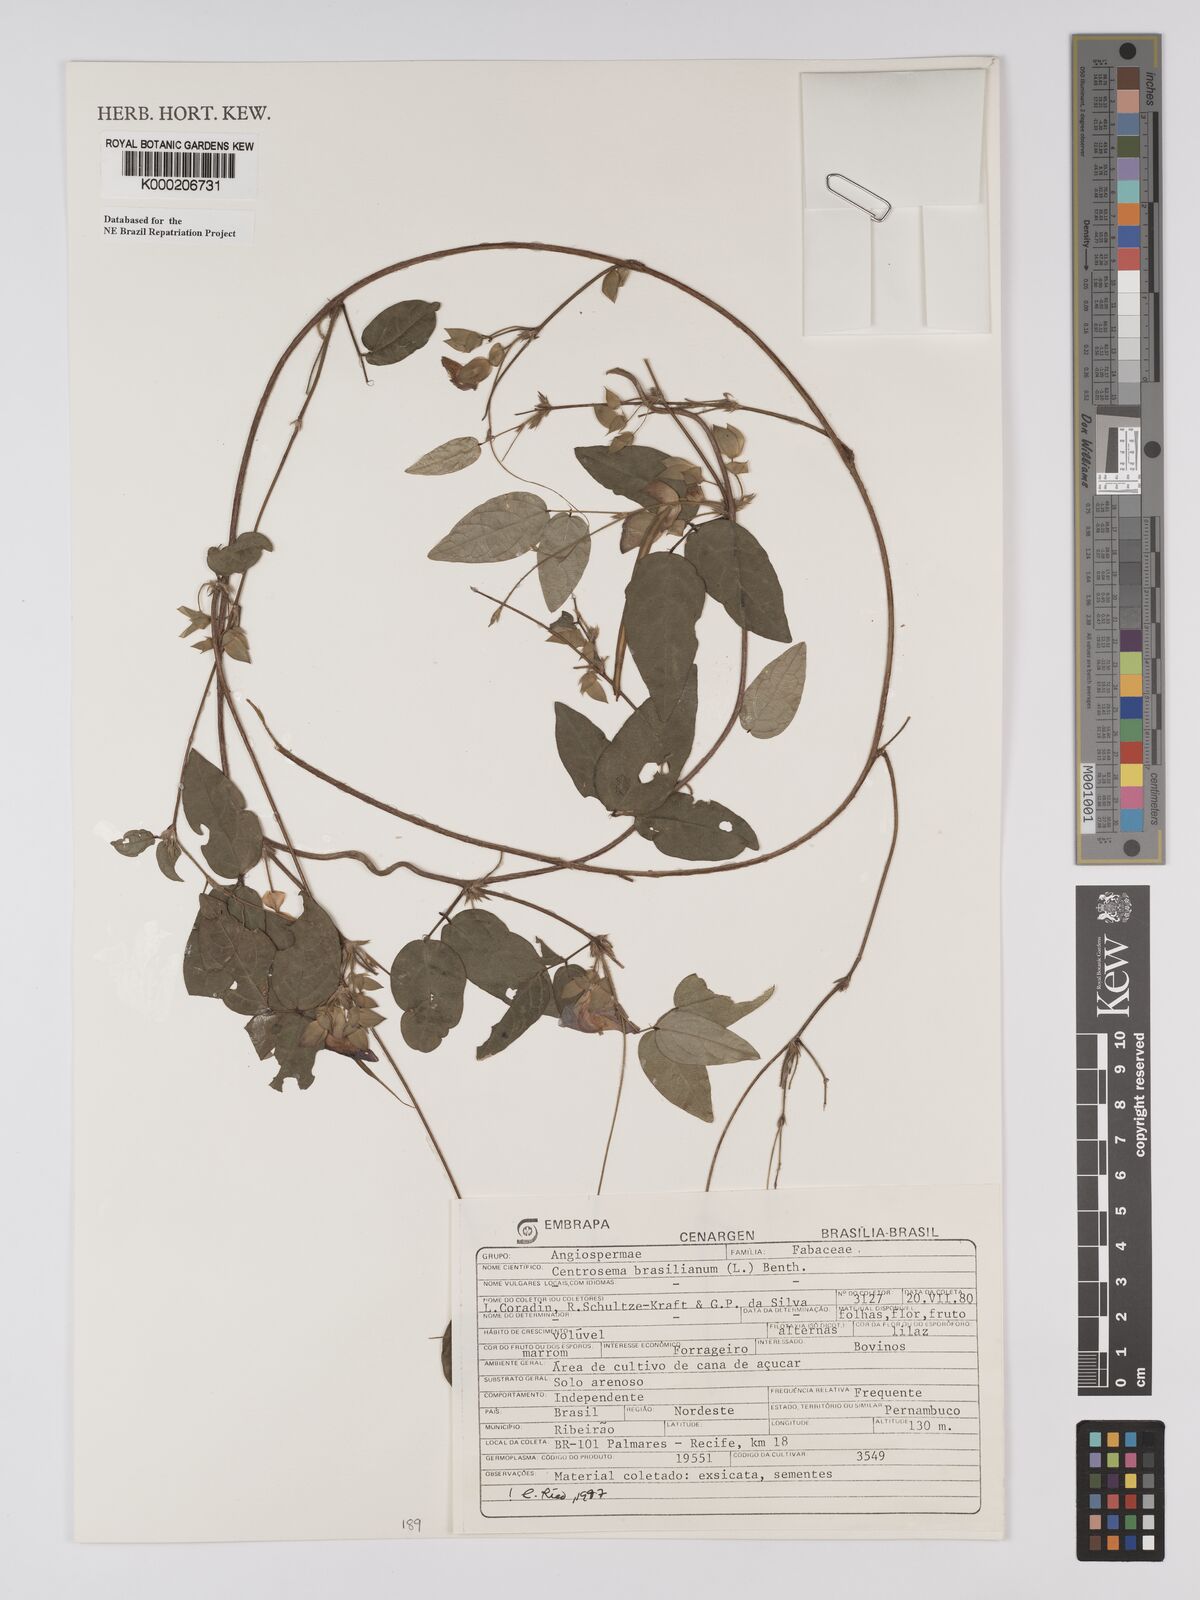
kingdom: Plantae
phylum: Tracheophyta
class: Magnoliopsida
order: Fabales
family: Fabaceae
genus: Centrosema
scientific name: Centrosema brasilianum
